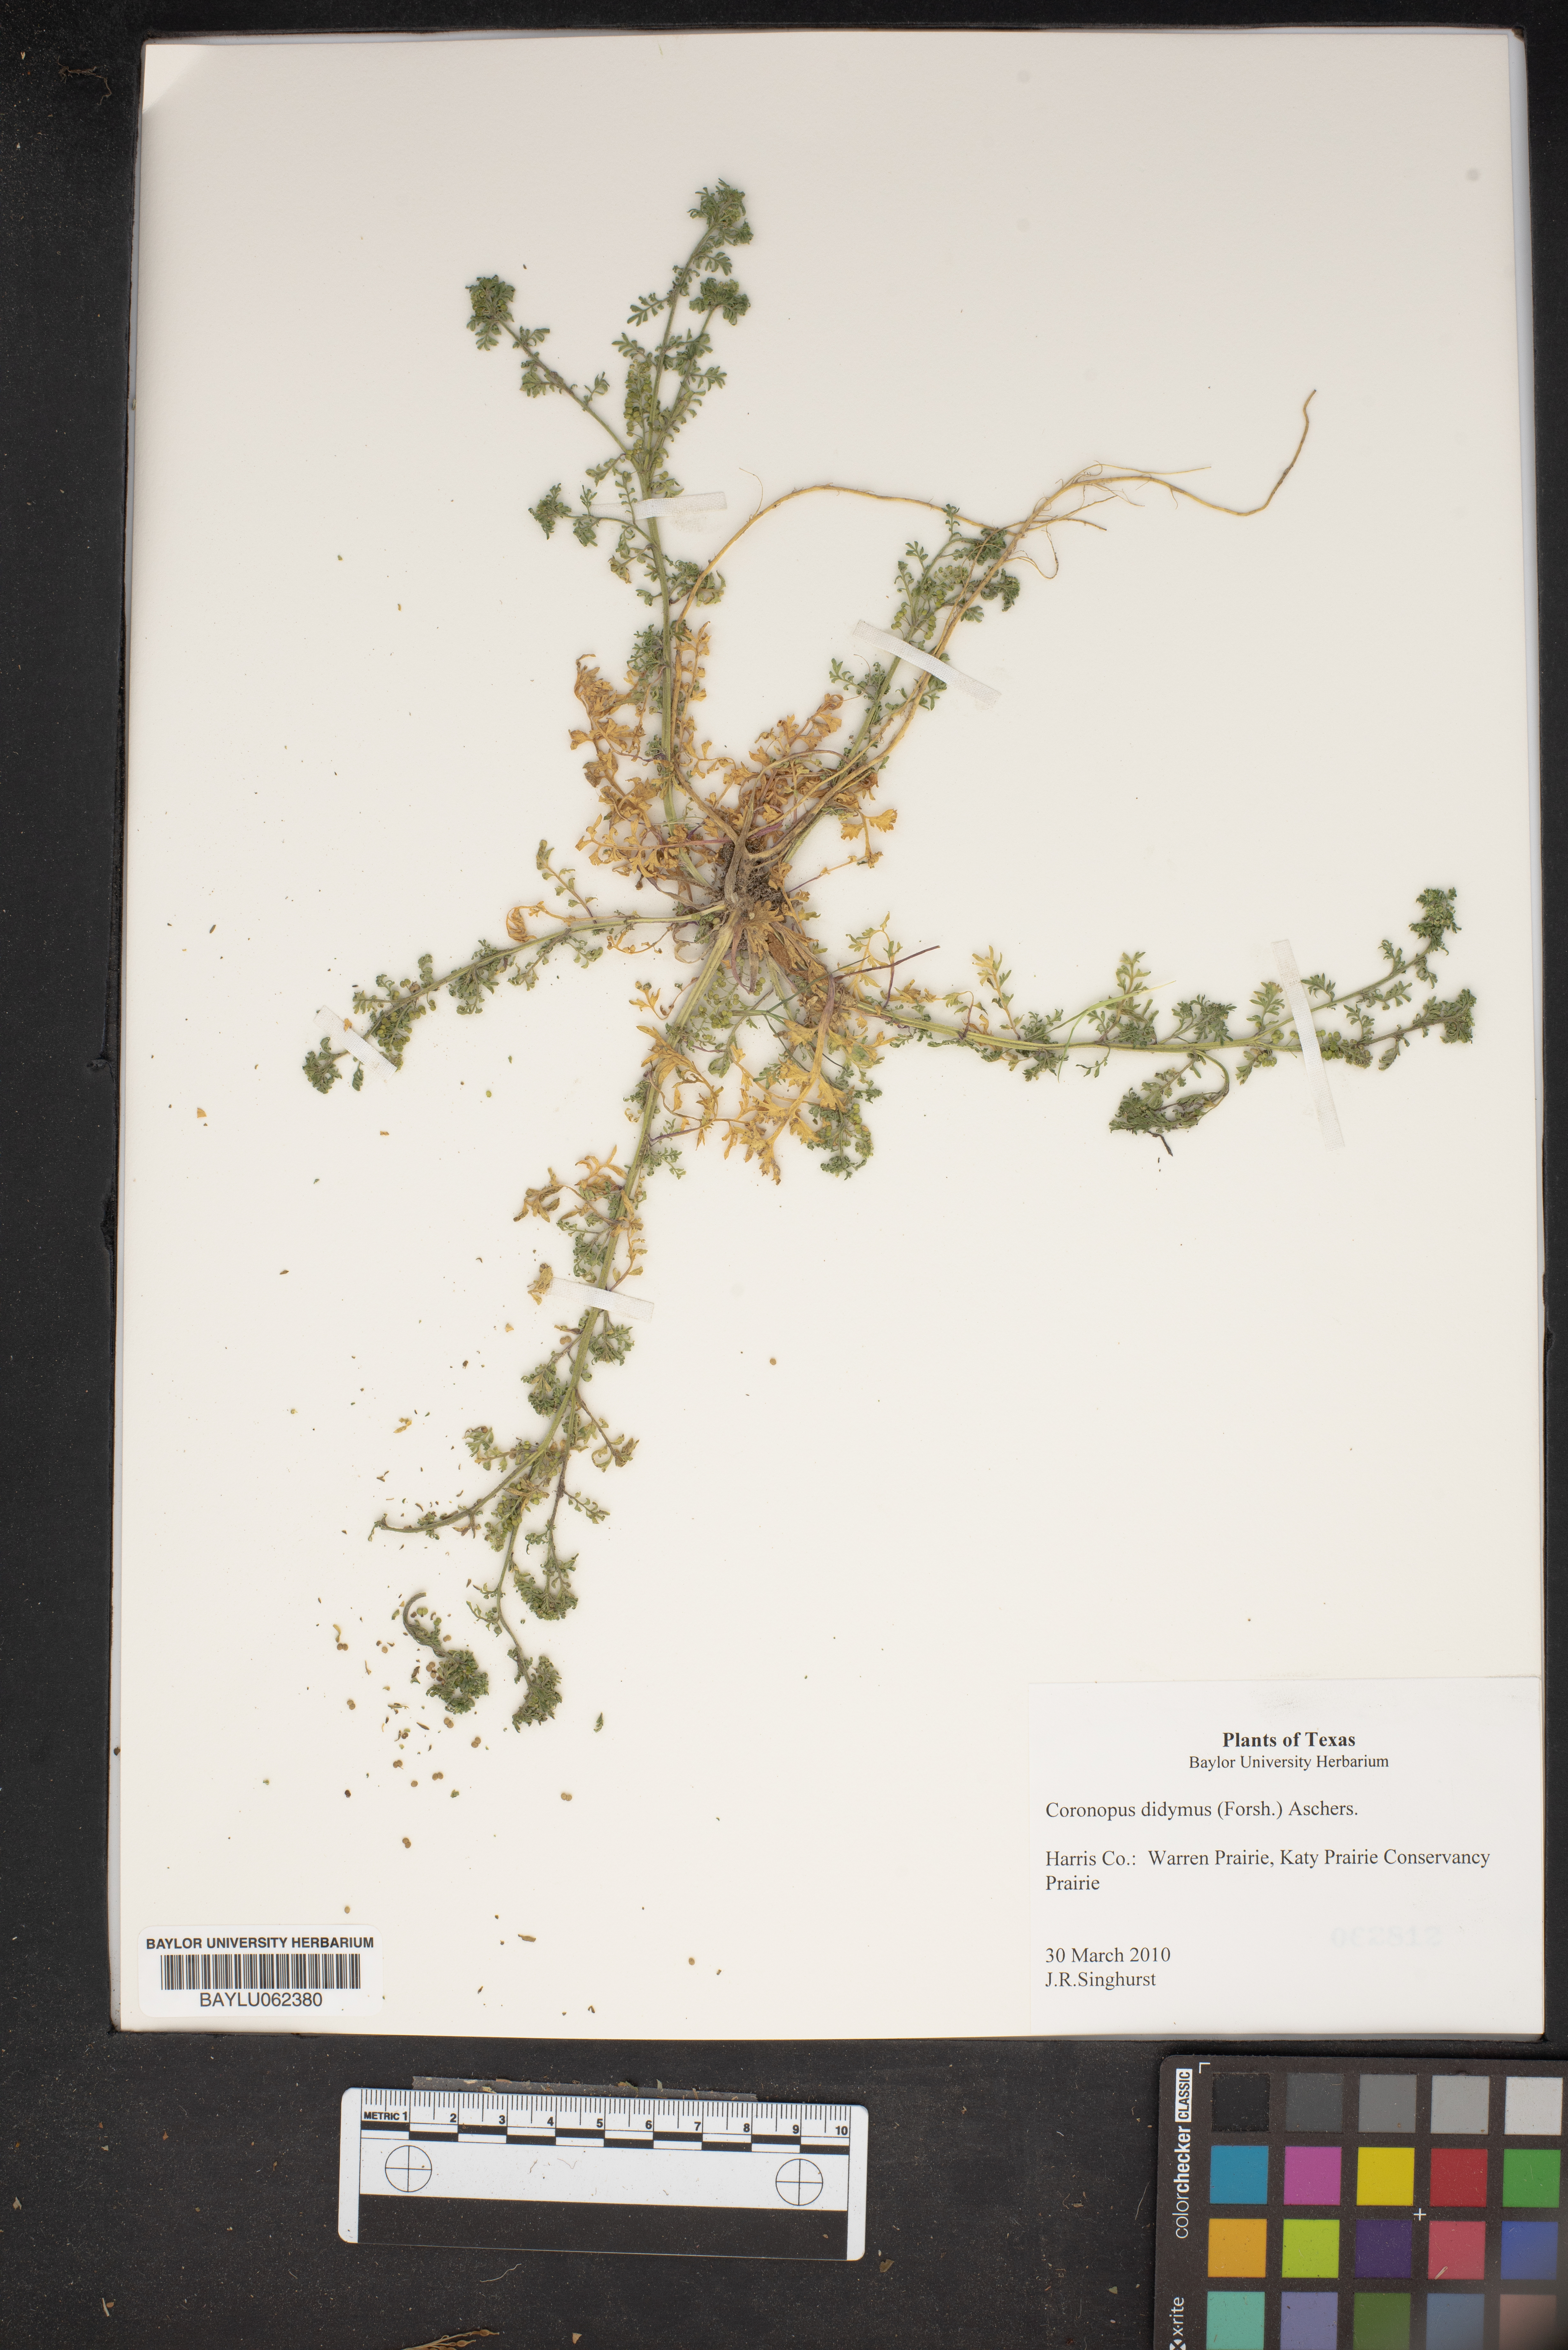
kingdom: Plantae
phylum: Tracheophyta
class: Magnoliopsida
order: Brassicales
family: Brassicaceae
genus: Lepidium
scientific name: Lepidium didymum
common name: Lesser swinecress
